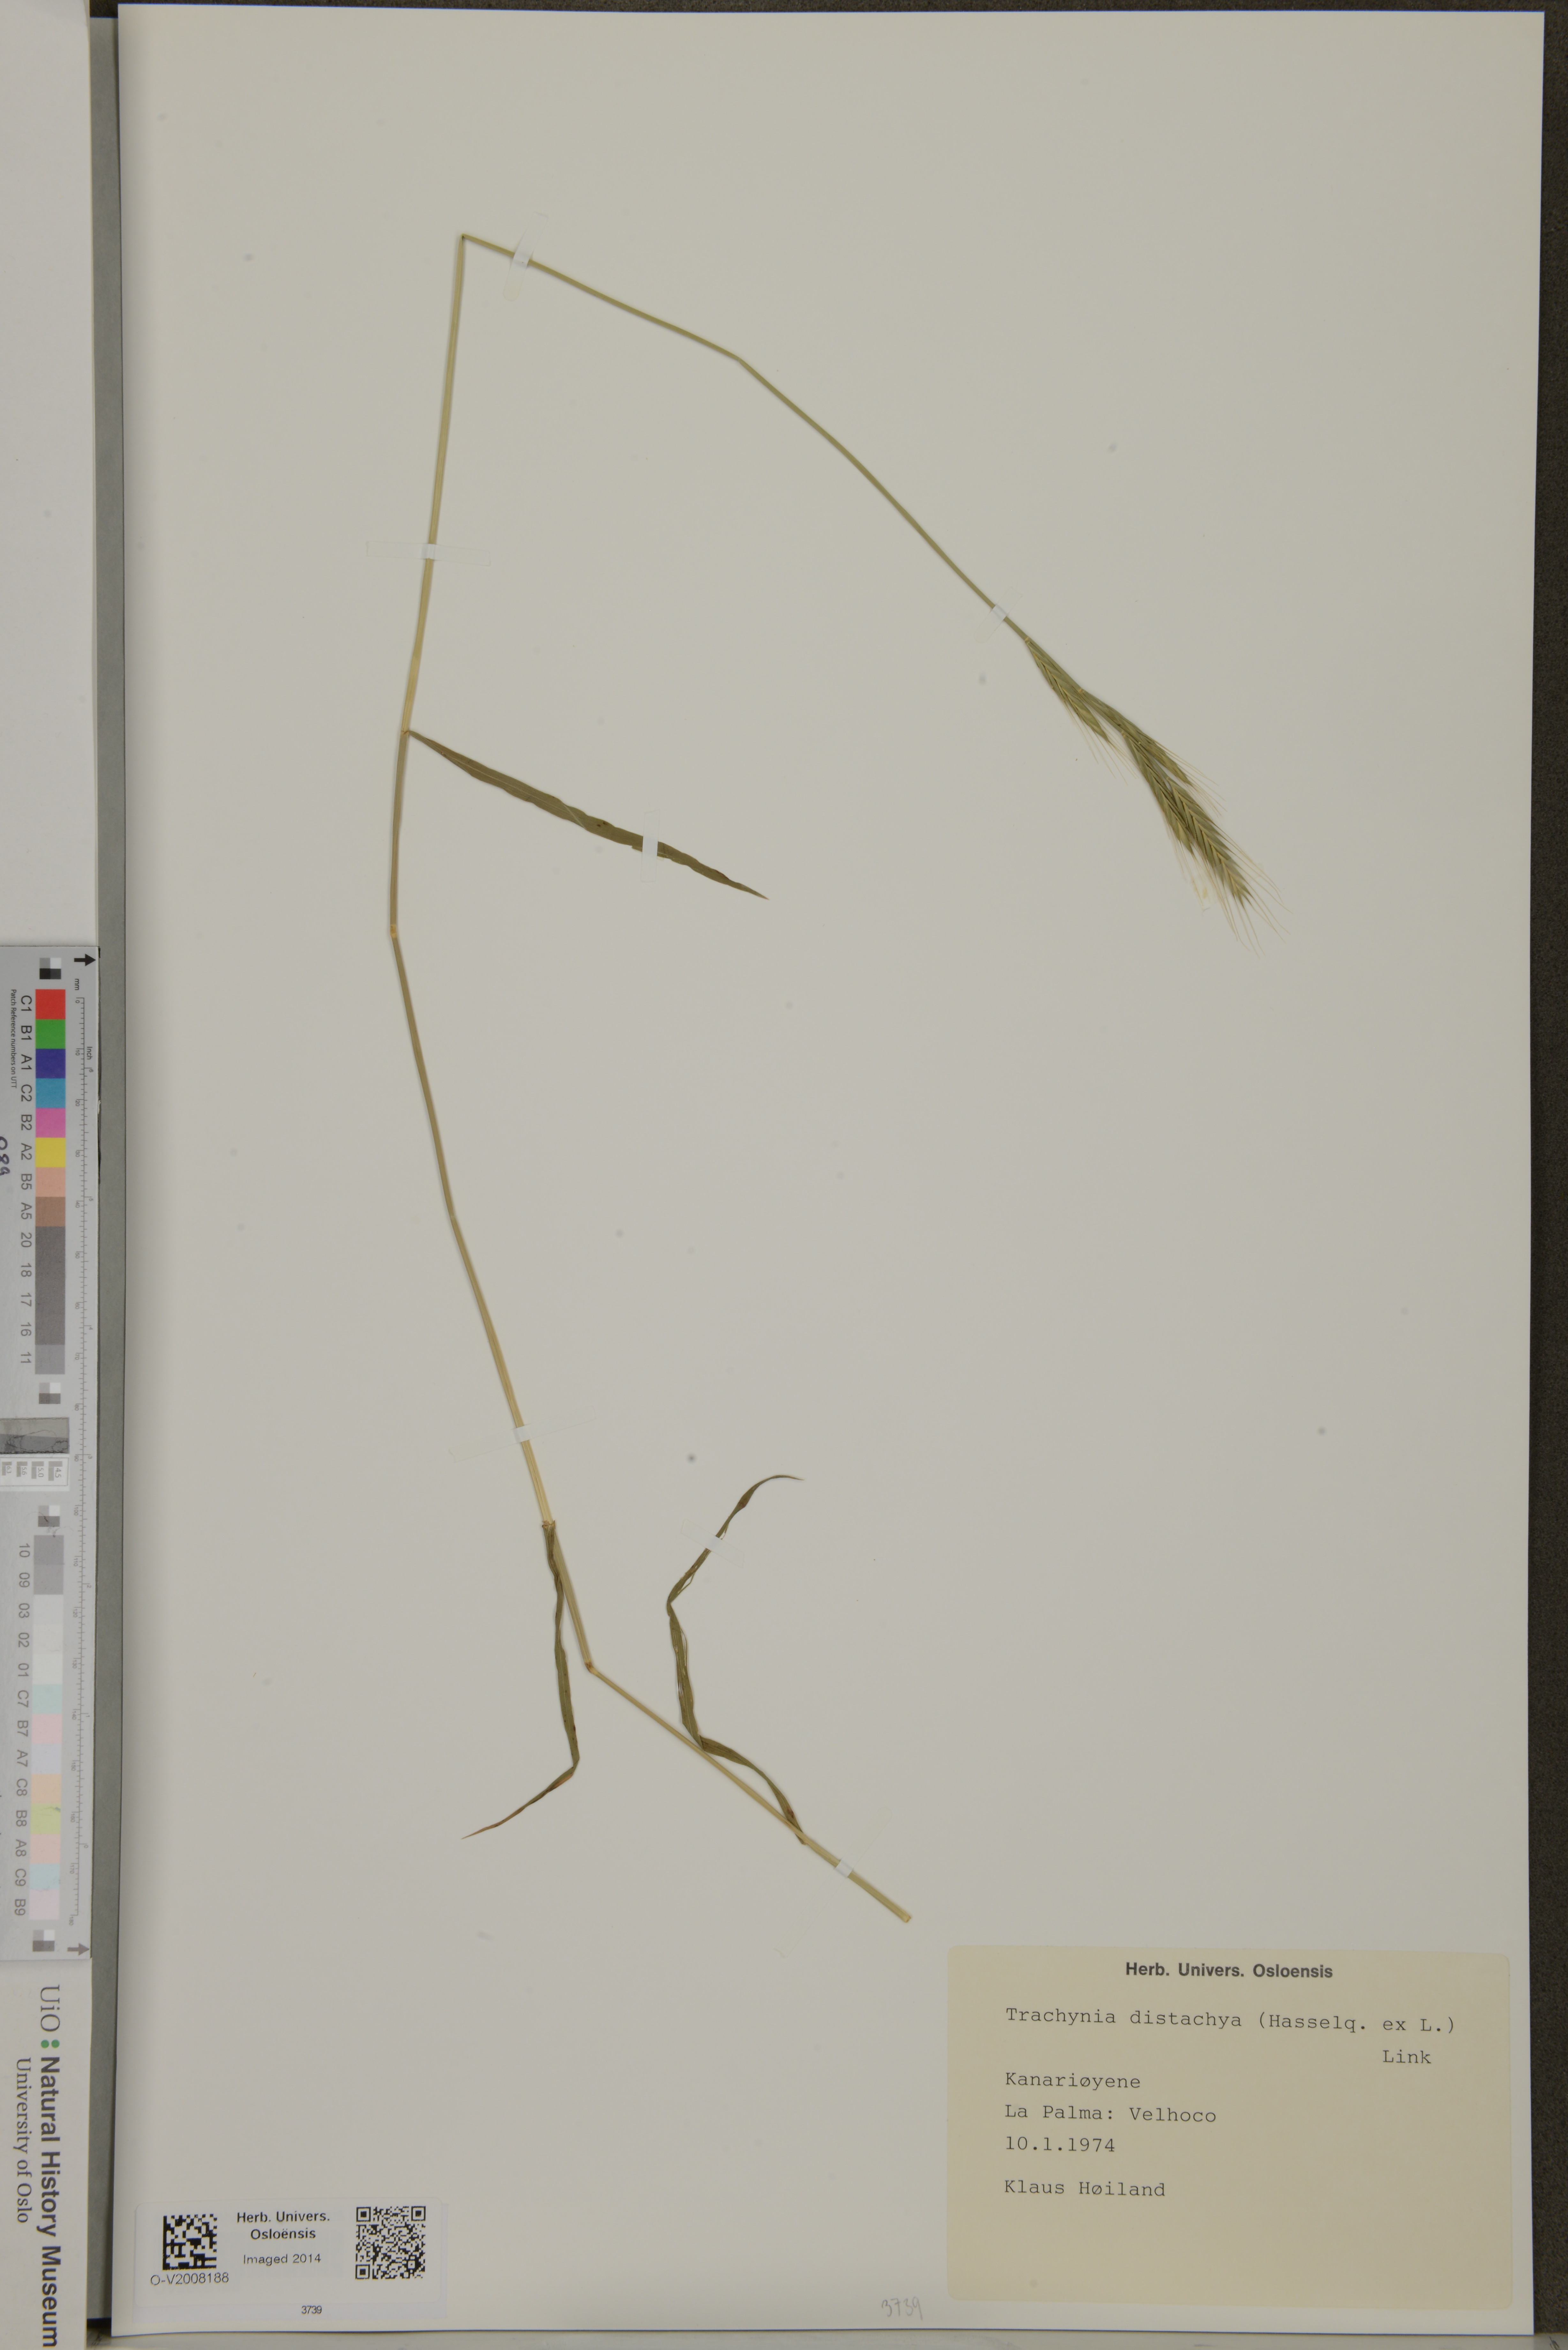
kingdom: Plantae
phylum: Tracheophyta
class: Liliopsida
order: Poales
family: Poaceae
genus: Brachypodium
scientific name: Brachypodium distachyon
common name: Stiff brome
